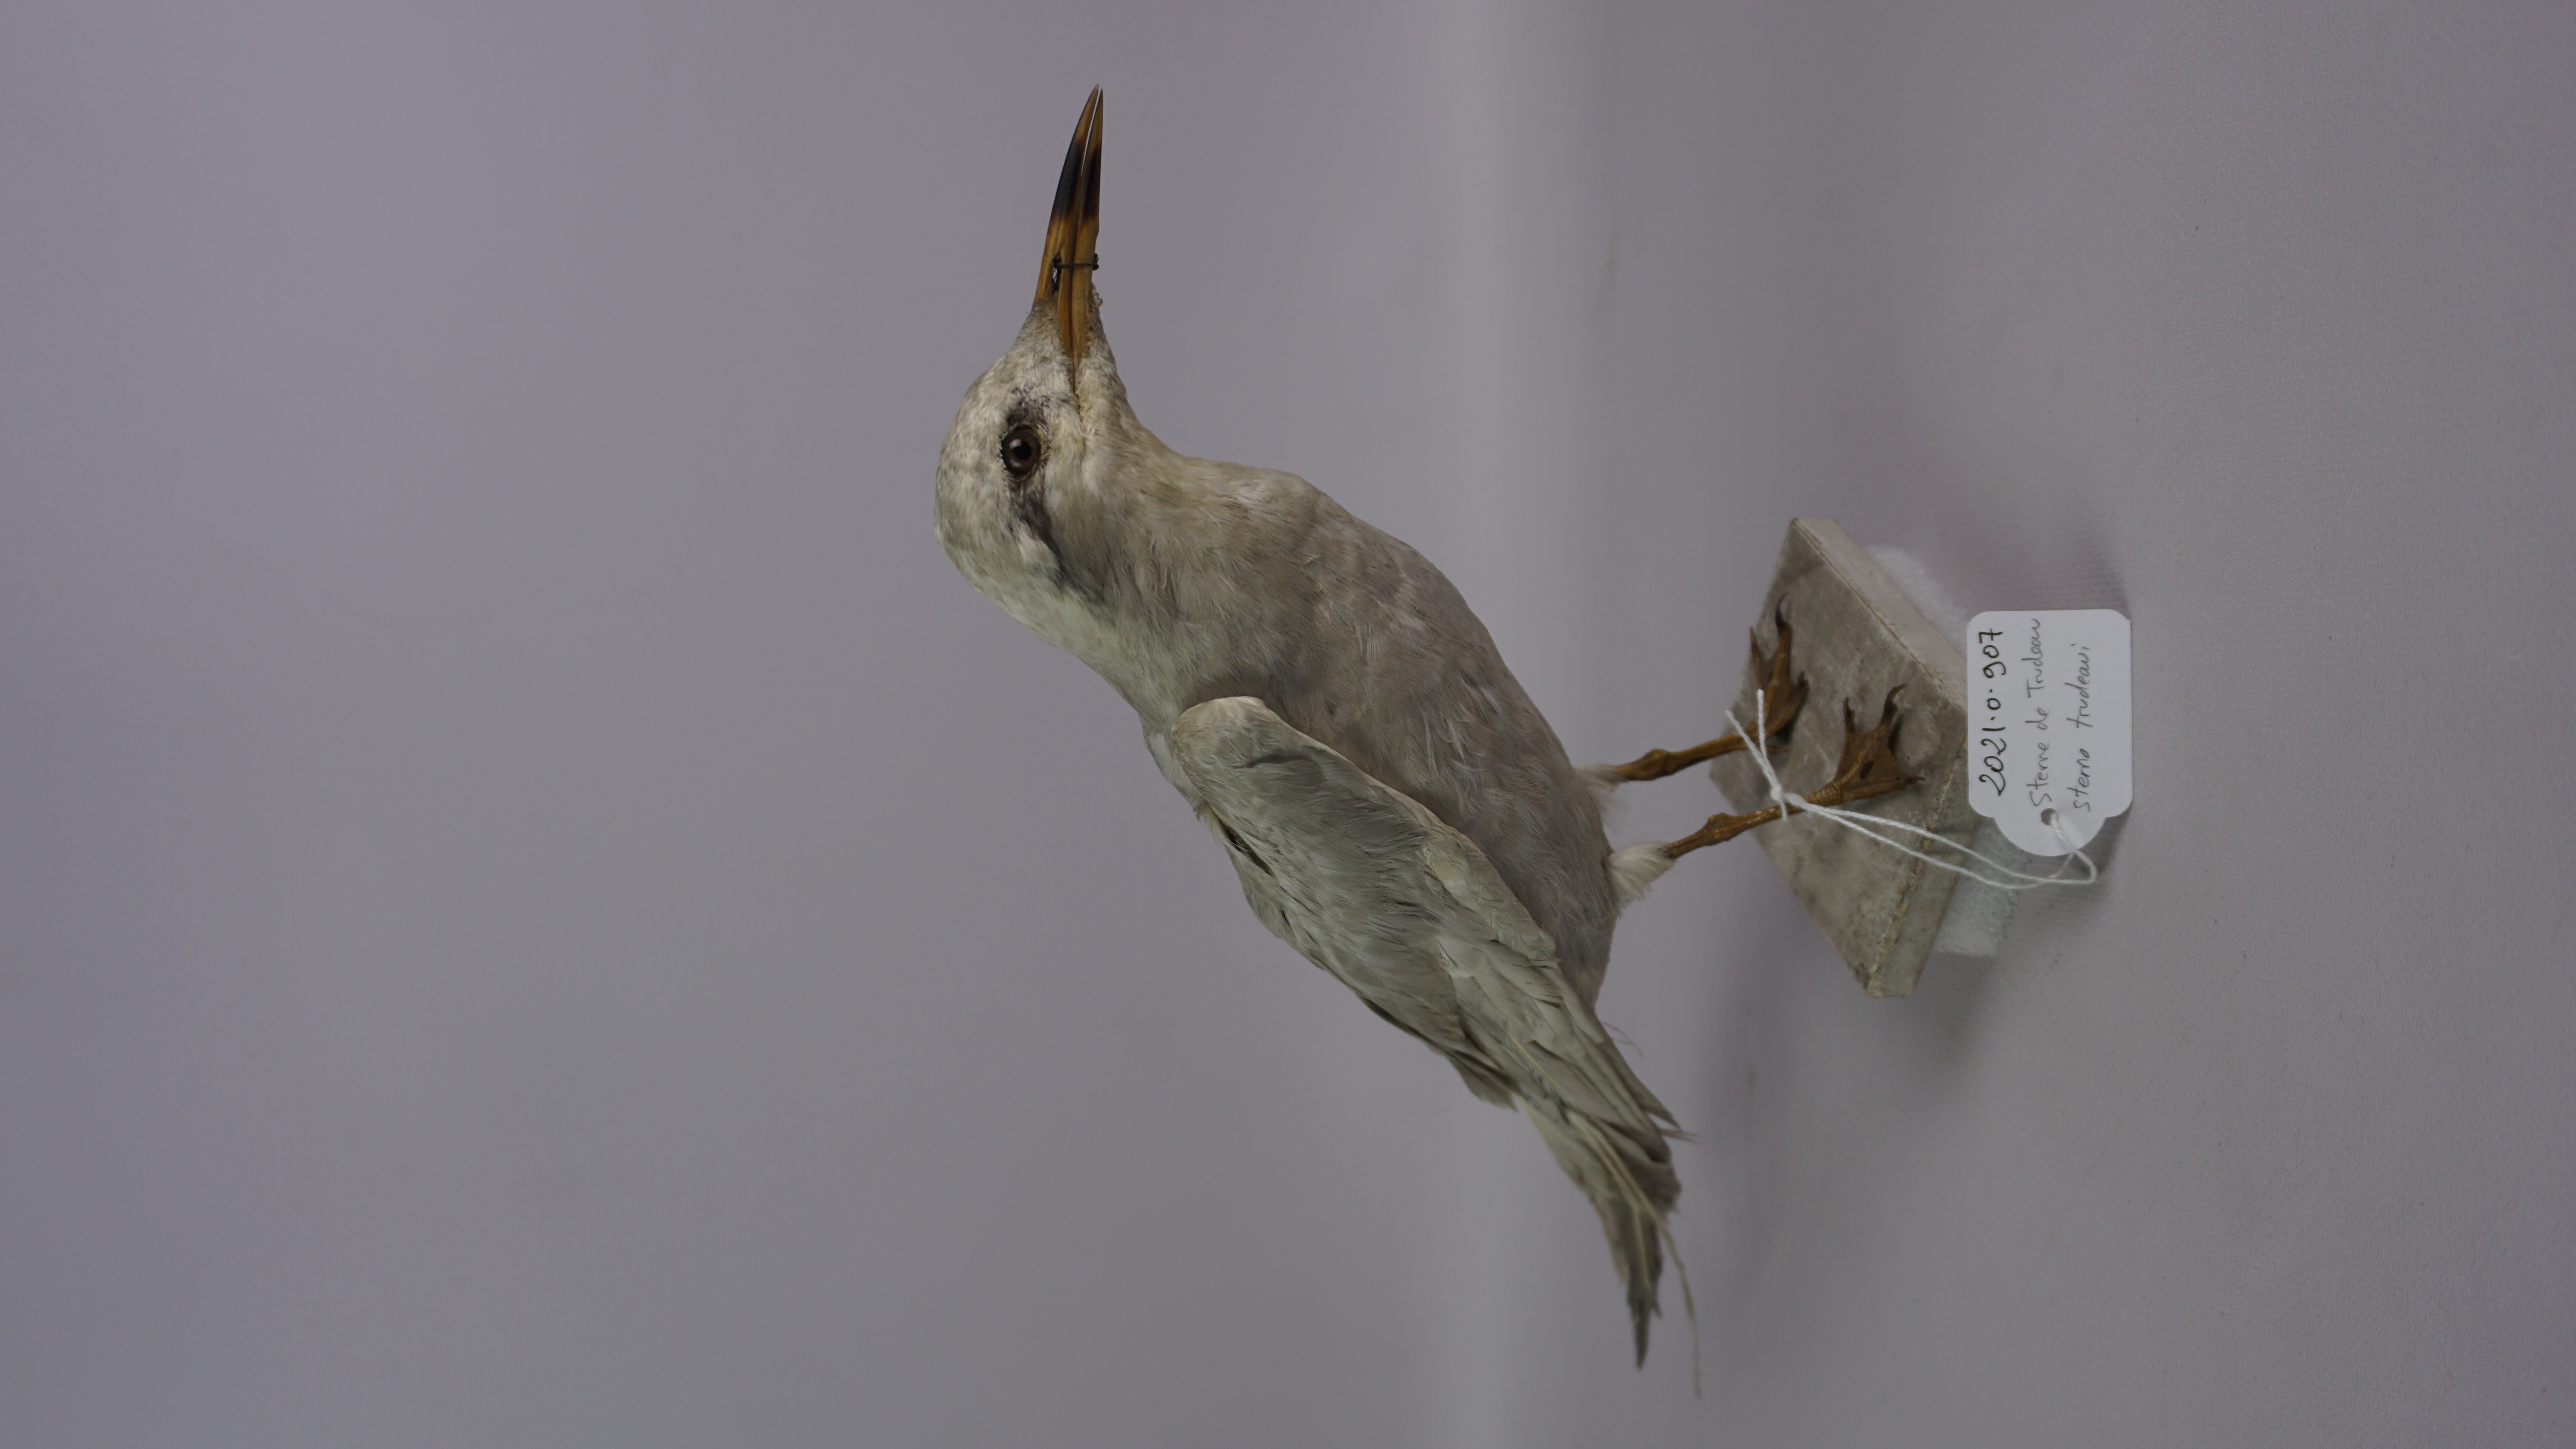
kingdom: Animalia
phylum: Chordata
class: Aves
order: Charadriiformes
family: Laridae
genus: Sterna
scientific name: Sterna trudeaui
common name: Snowy-crowned tern
